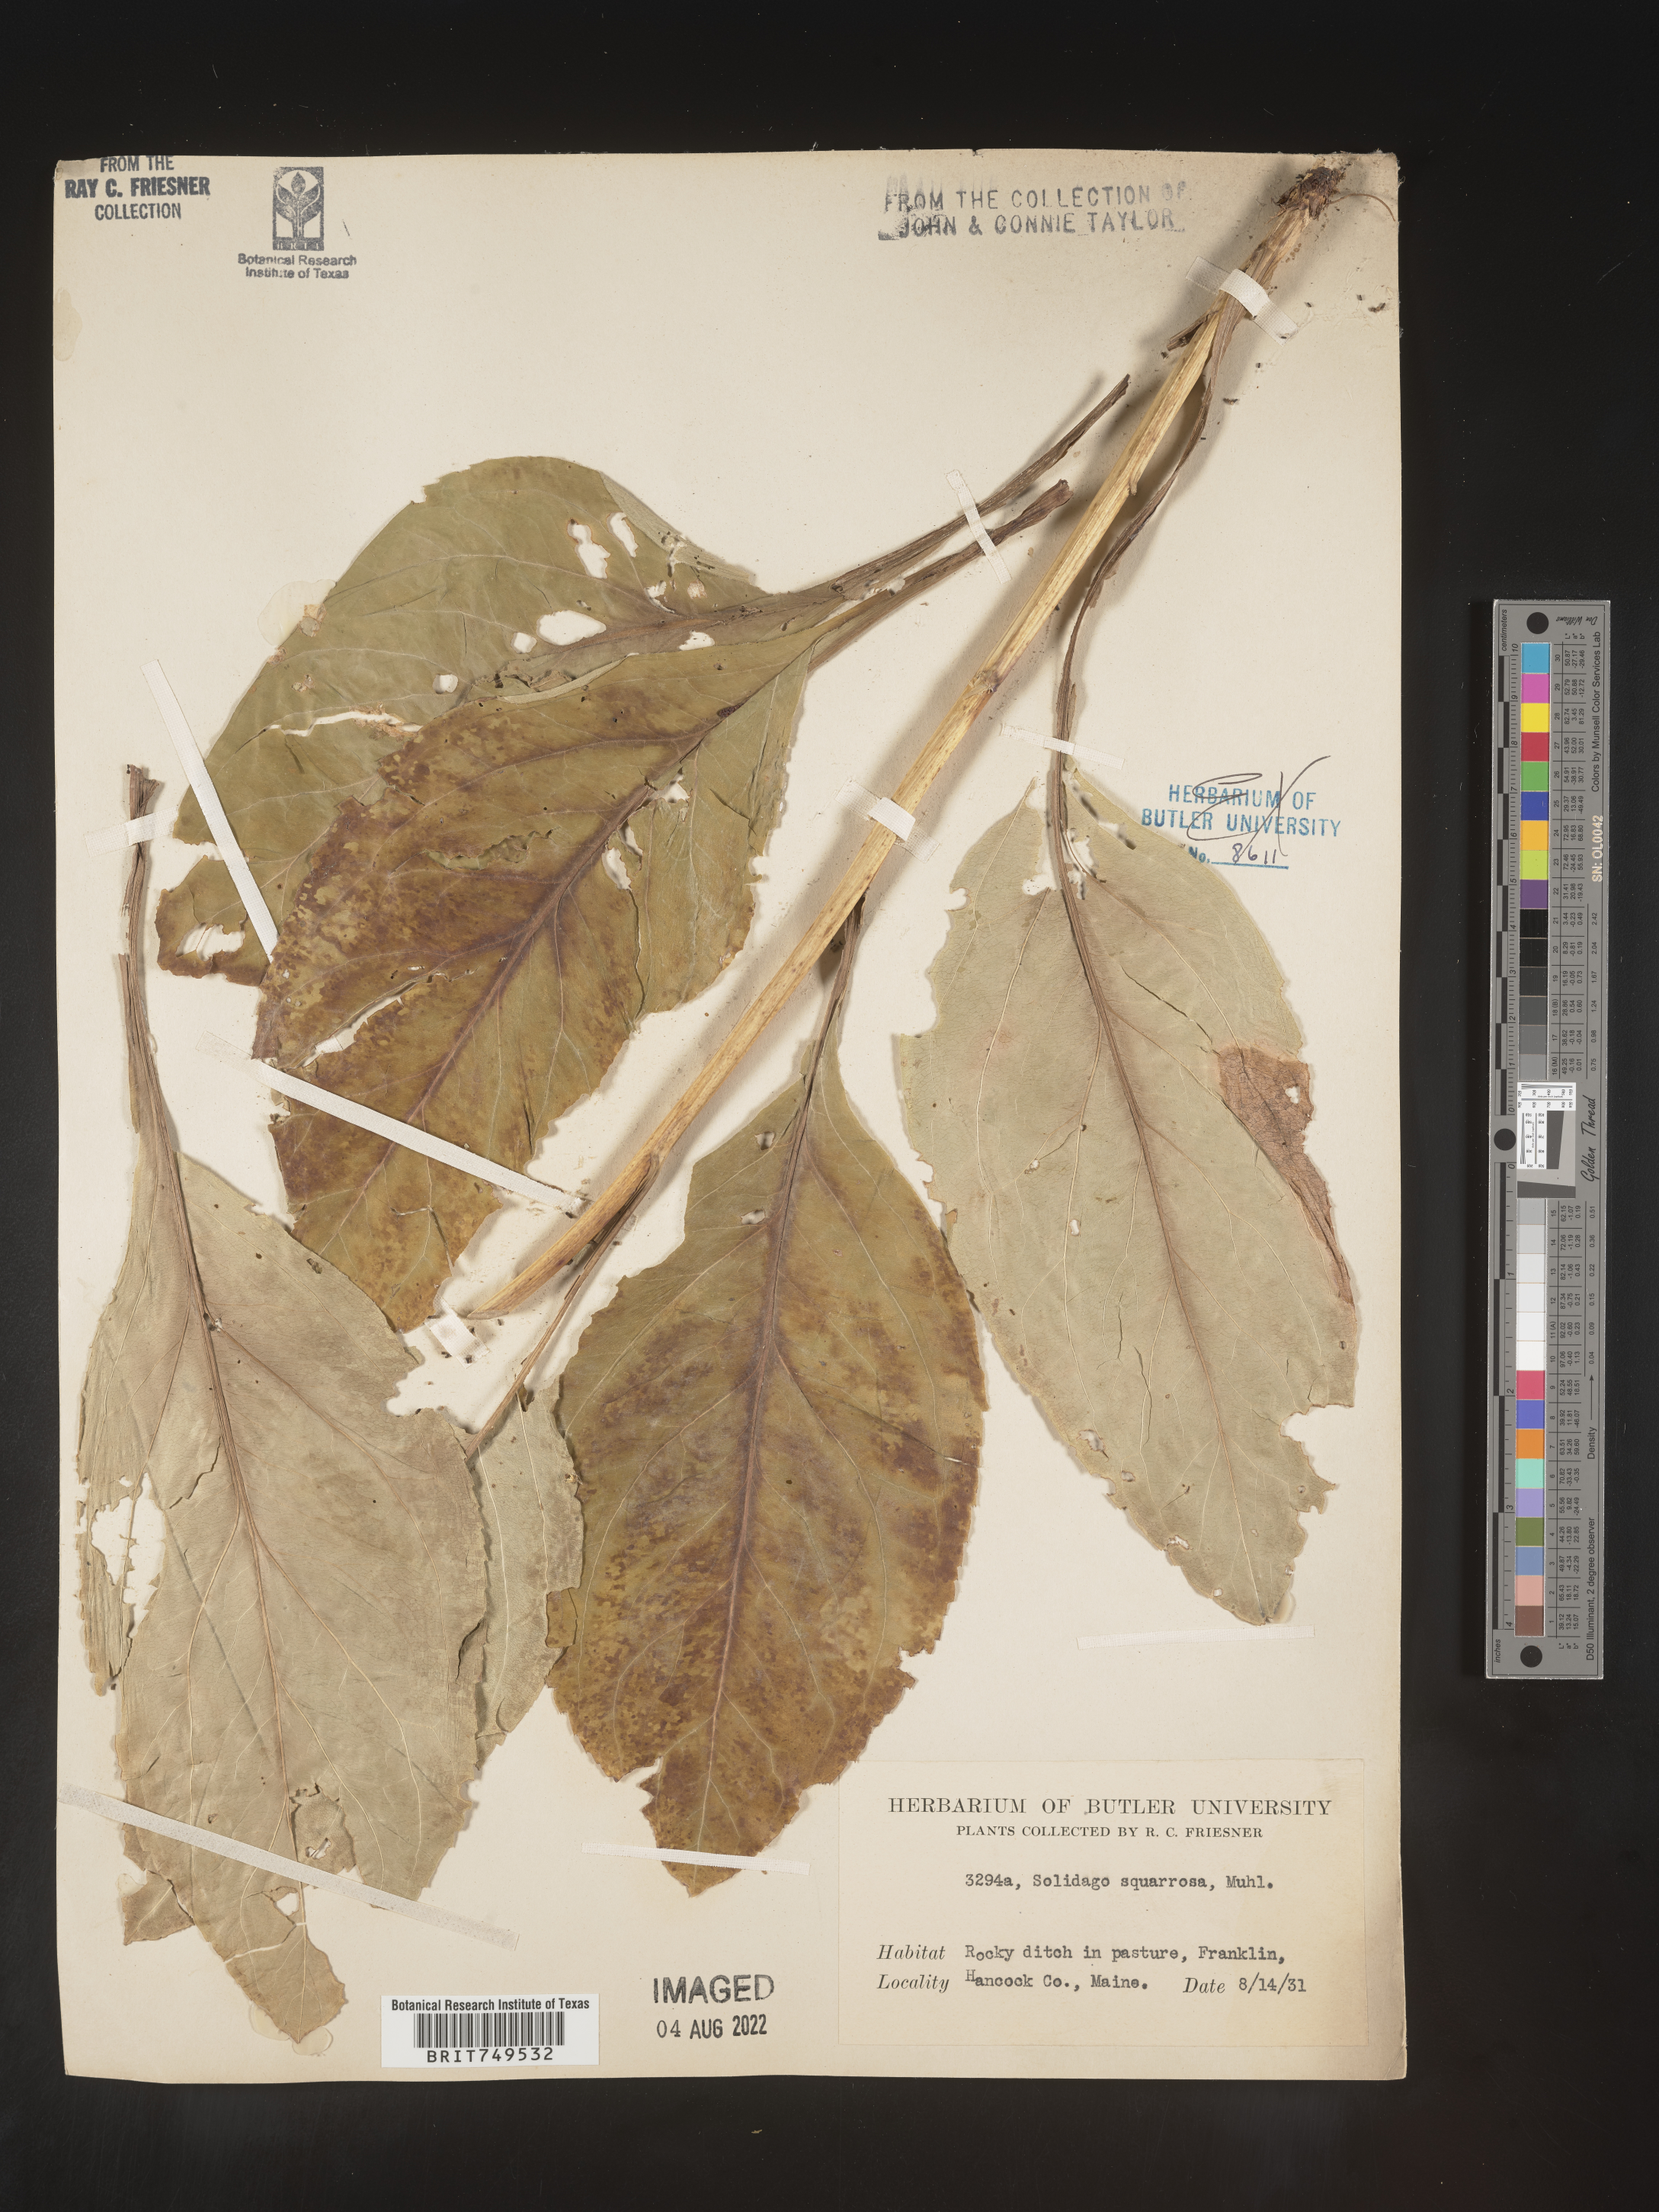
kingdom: Plantae
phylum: Tracheophyta
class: Magnoliopsida
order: Asterales
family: Asteraceae
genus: Solidago
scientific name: Solidago squarrosa
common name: Stout goldenrod
